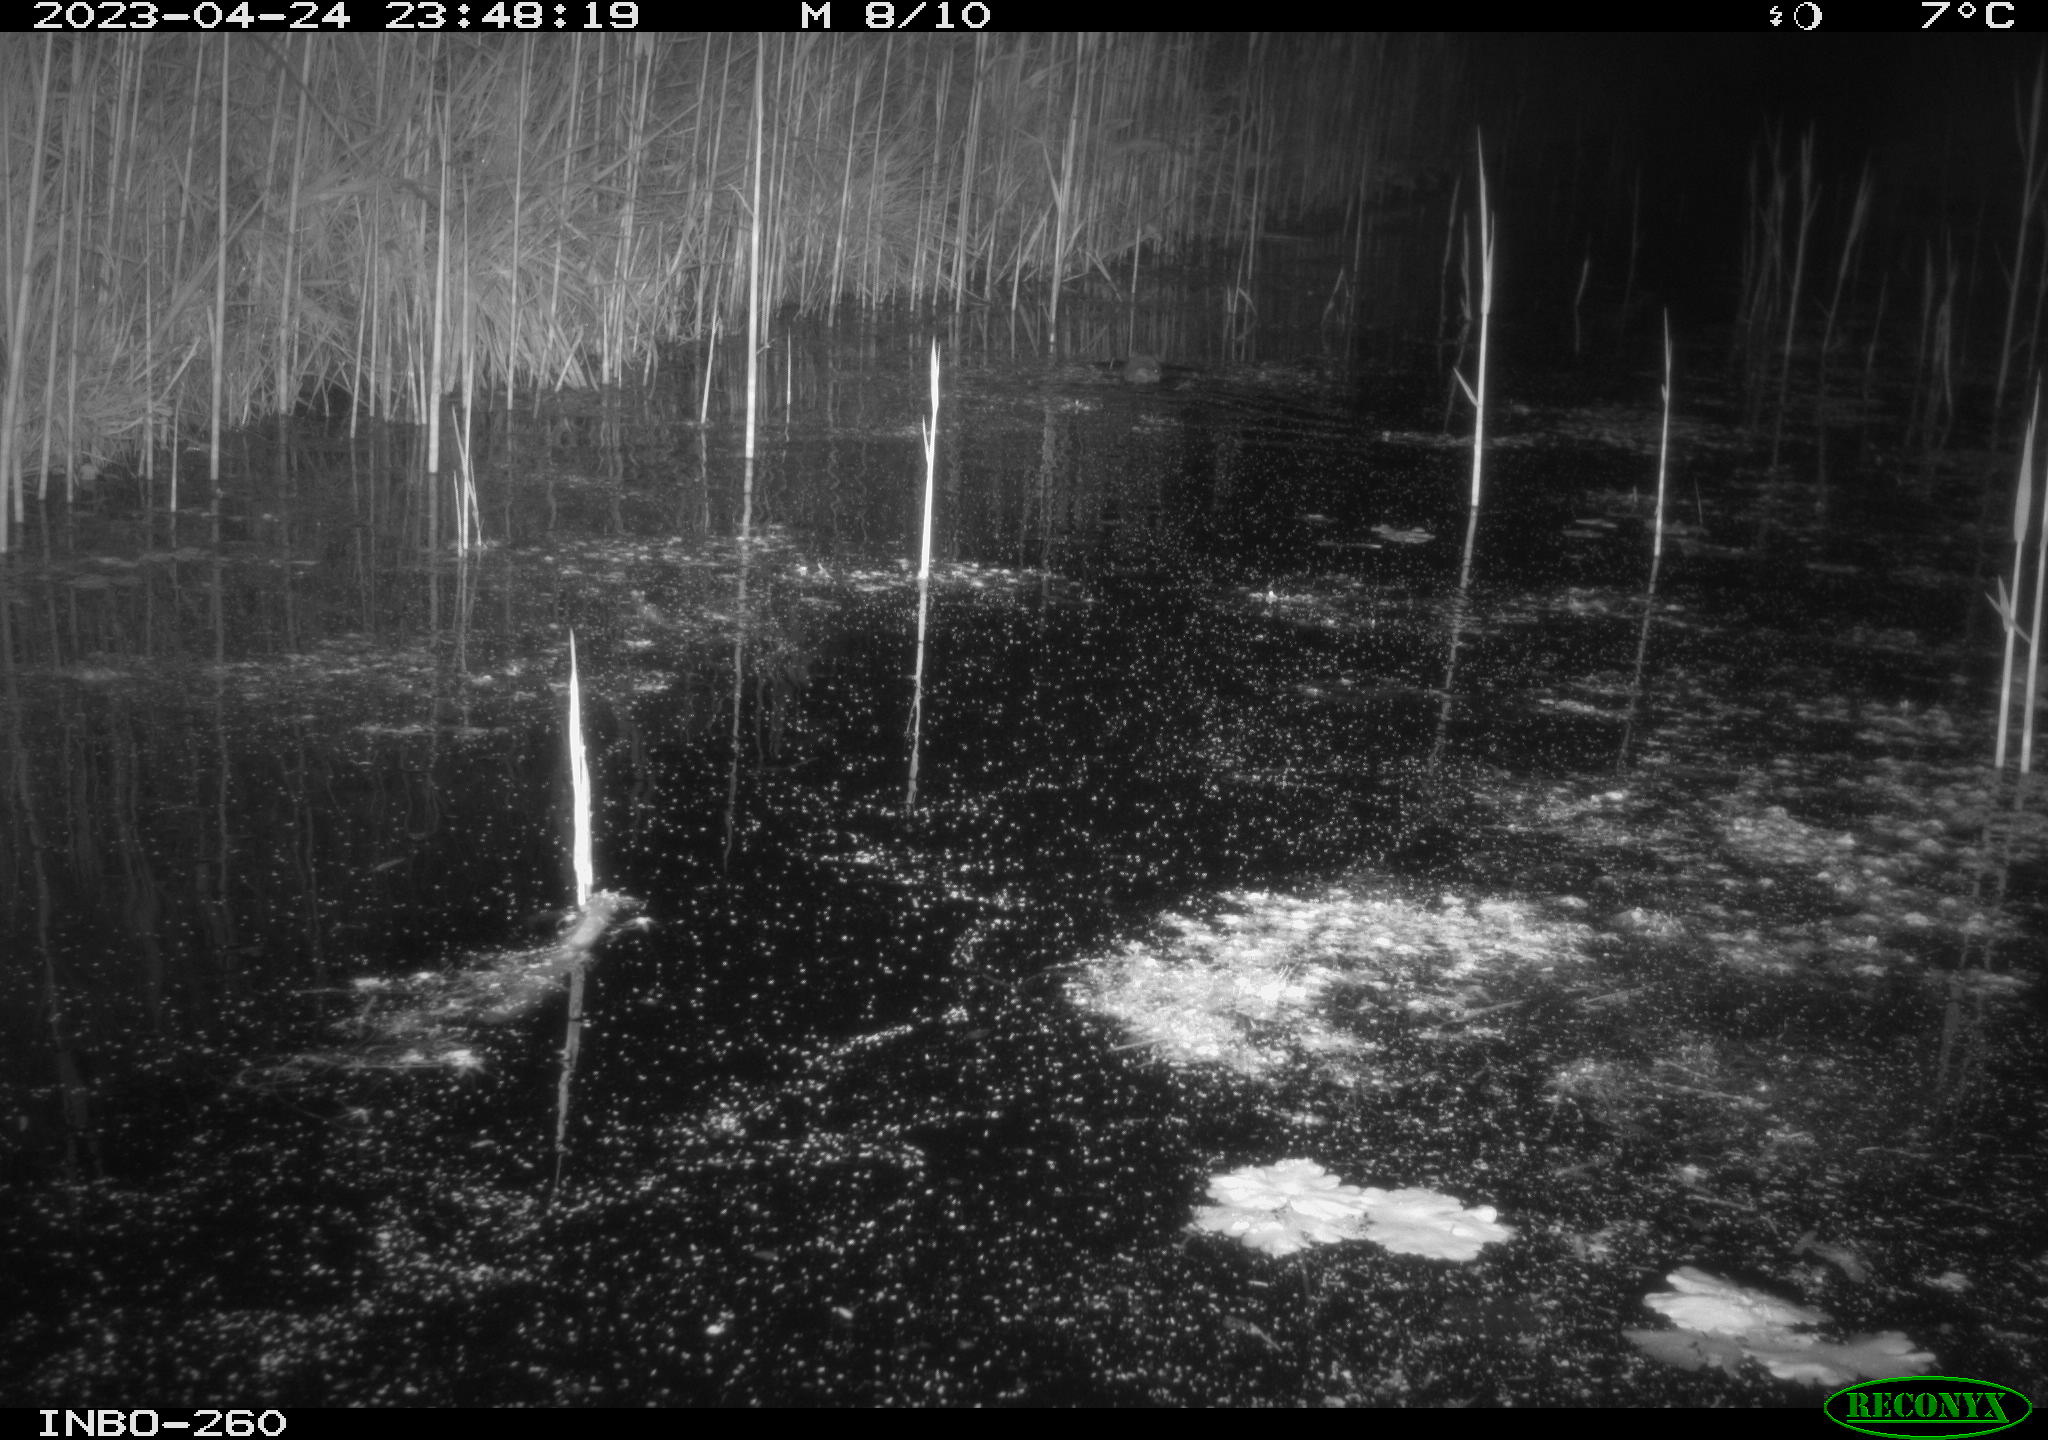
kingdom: Animalia
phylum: Chordata
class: Mammalia
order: Rodentia
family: Muridae
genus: Rattus
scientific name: Rattus norvegicus
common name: Brown rat
